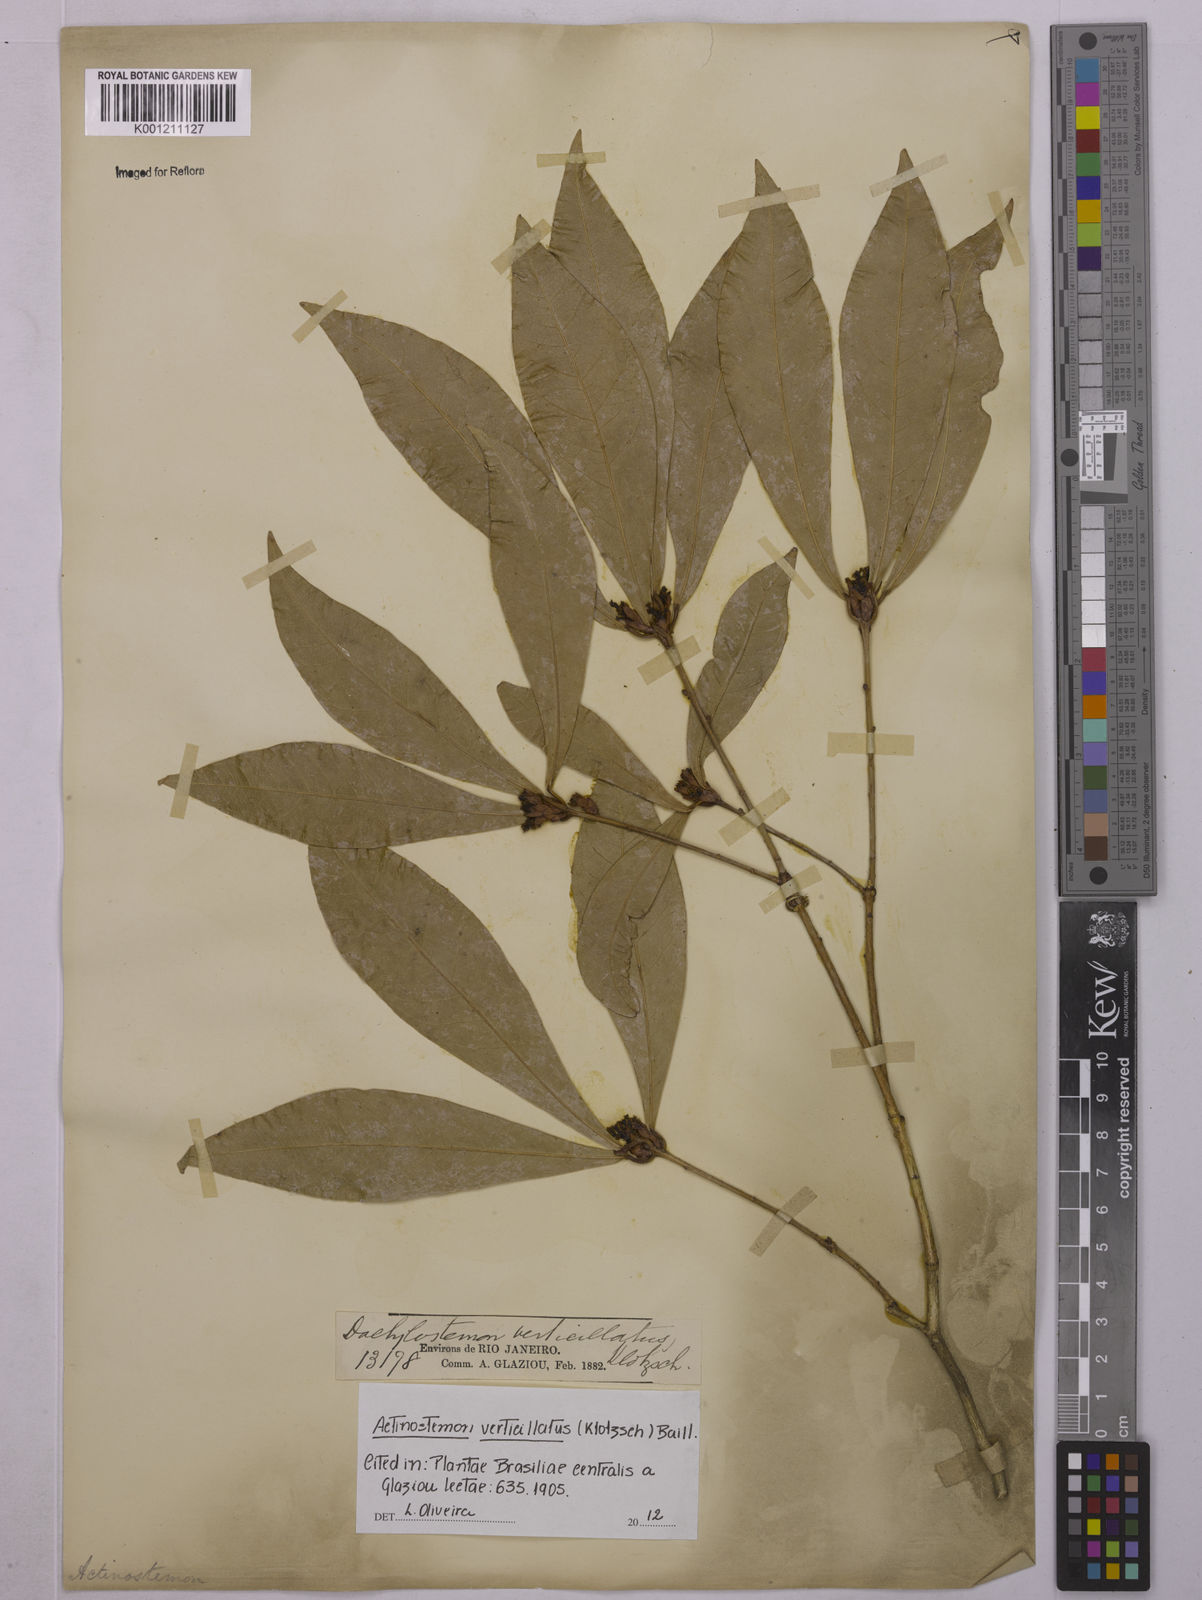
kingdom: Plantae
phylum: Tracheophyta
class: Magnoliopsida
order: Malpighiales
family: Euphorbiaceae
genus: Actinostemon
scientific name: Actinostemon verticillatus
